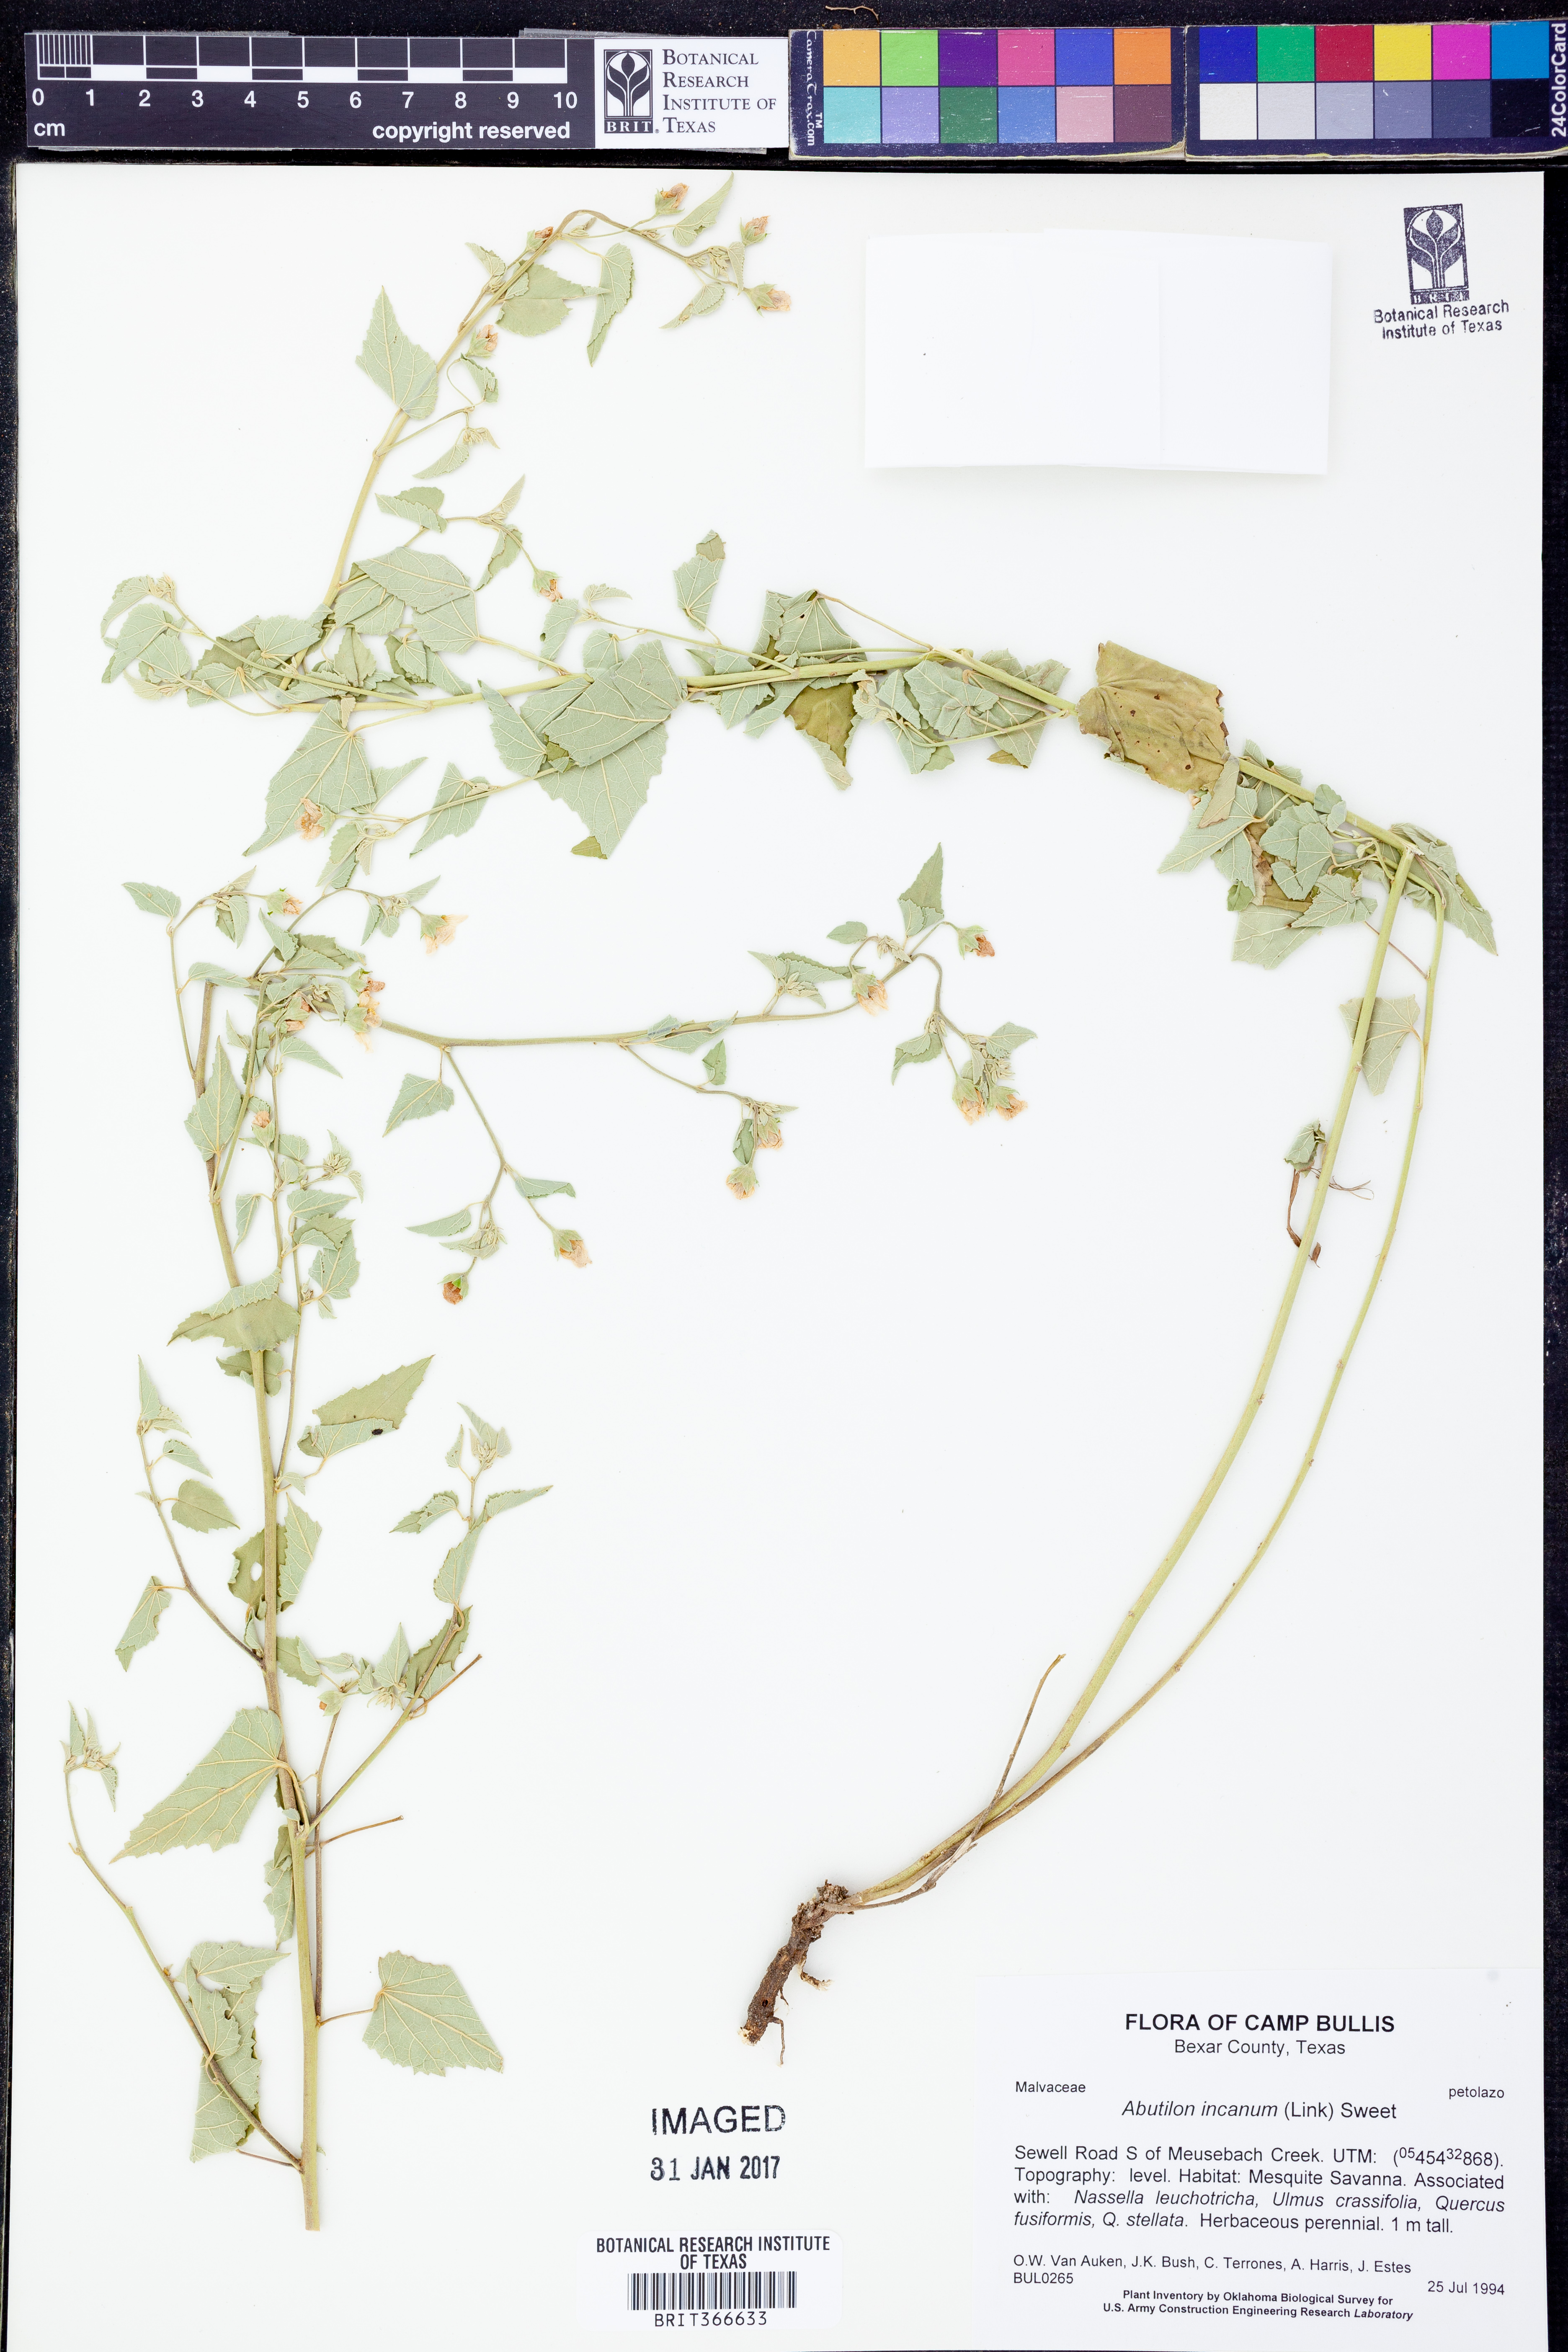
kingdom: Plantae
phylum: Tracheophyta
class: Magnoliopsida
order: Malvales
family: Malvaceae
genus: Abutilon
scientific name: Abutilon incanum
